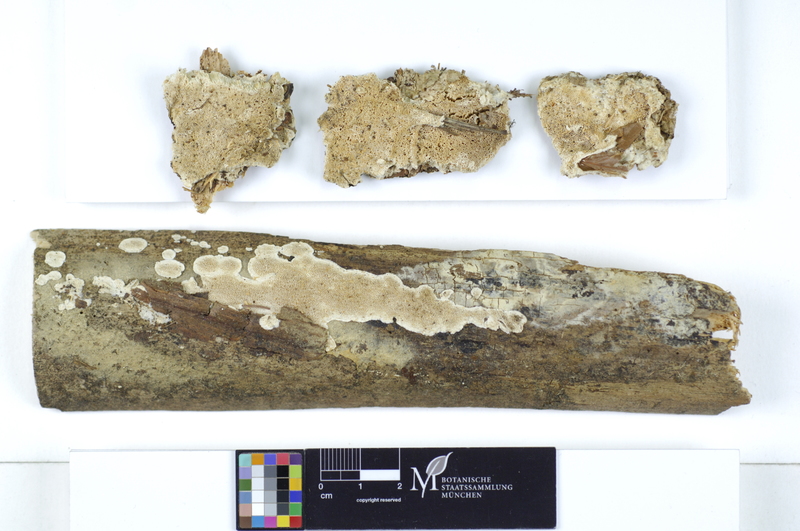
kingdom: Plantae
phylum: Tracheophyta
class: Pinopsida
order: Pinales
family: Pinaceae
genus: Picea
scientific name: Picea
